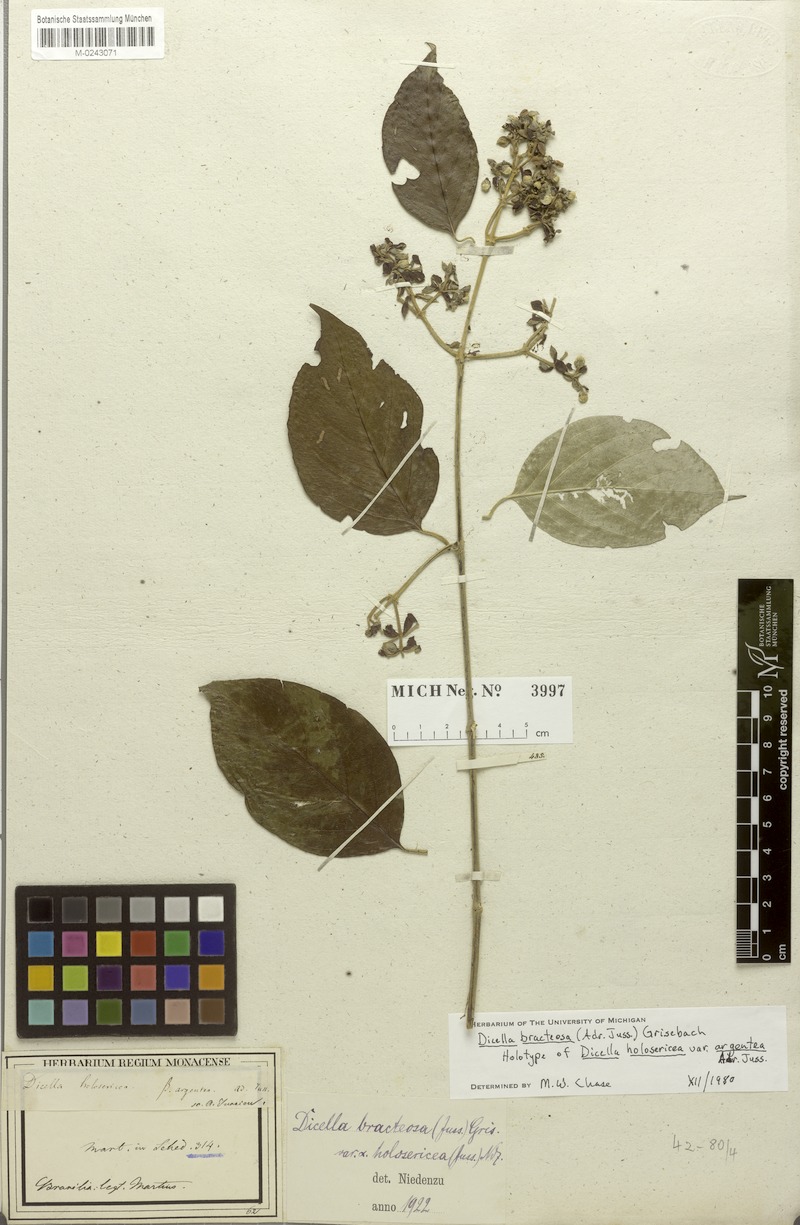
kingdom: Plantae
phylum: Tracheophyta
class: Magnoliopsida
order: Malpighiales
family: Malpighiaceae
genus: Dicella
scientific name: Dicella bracteosa
